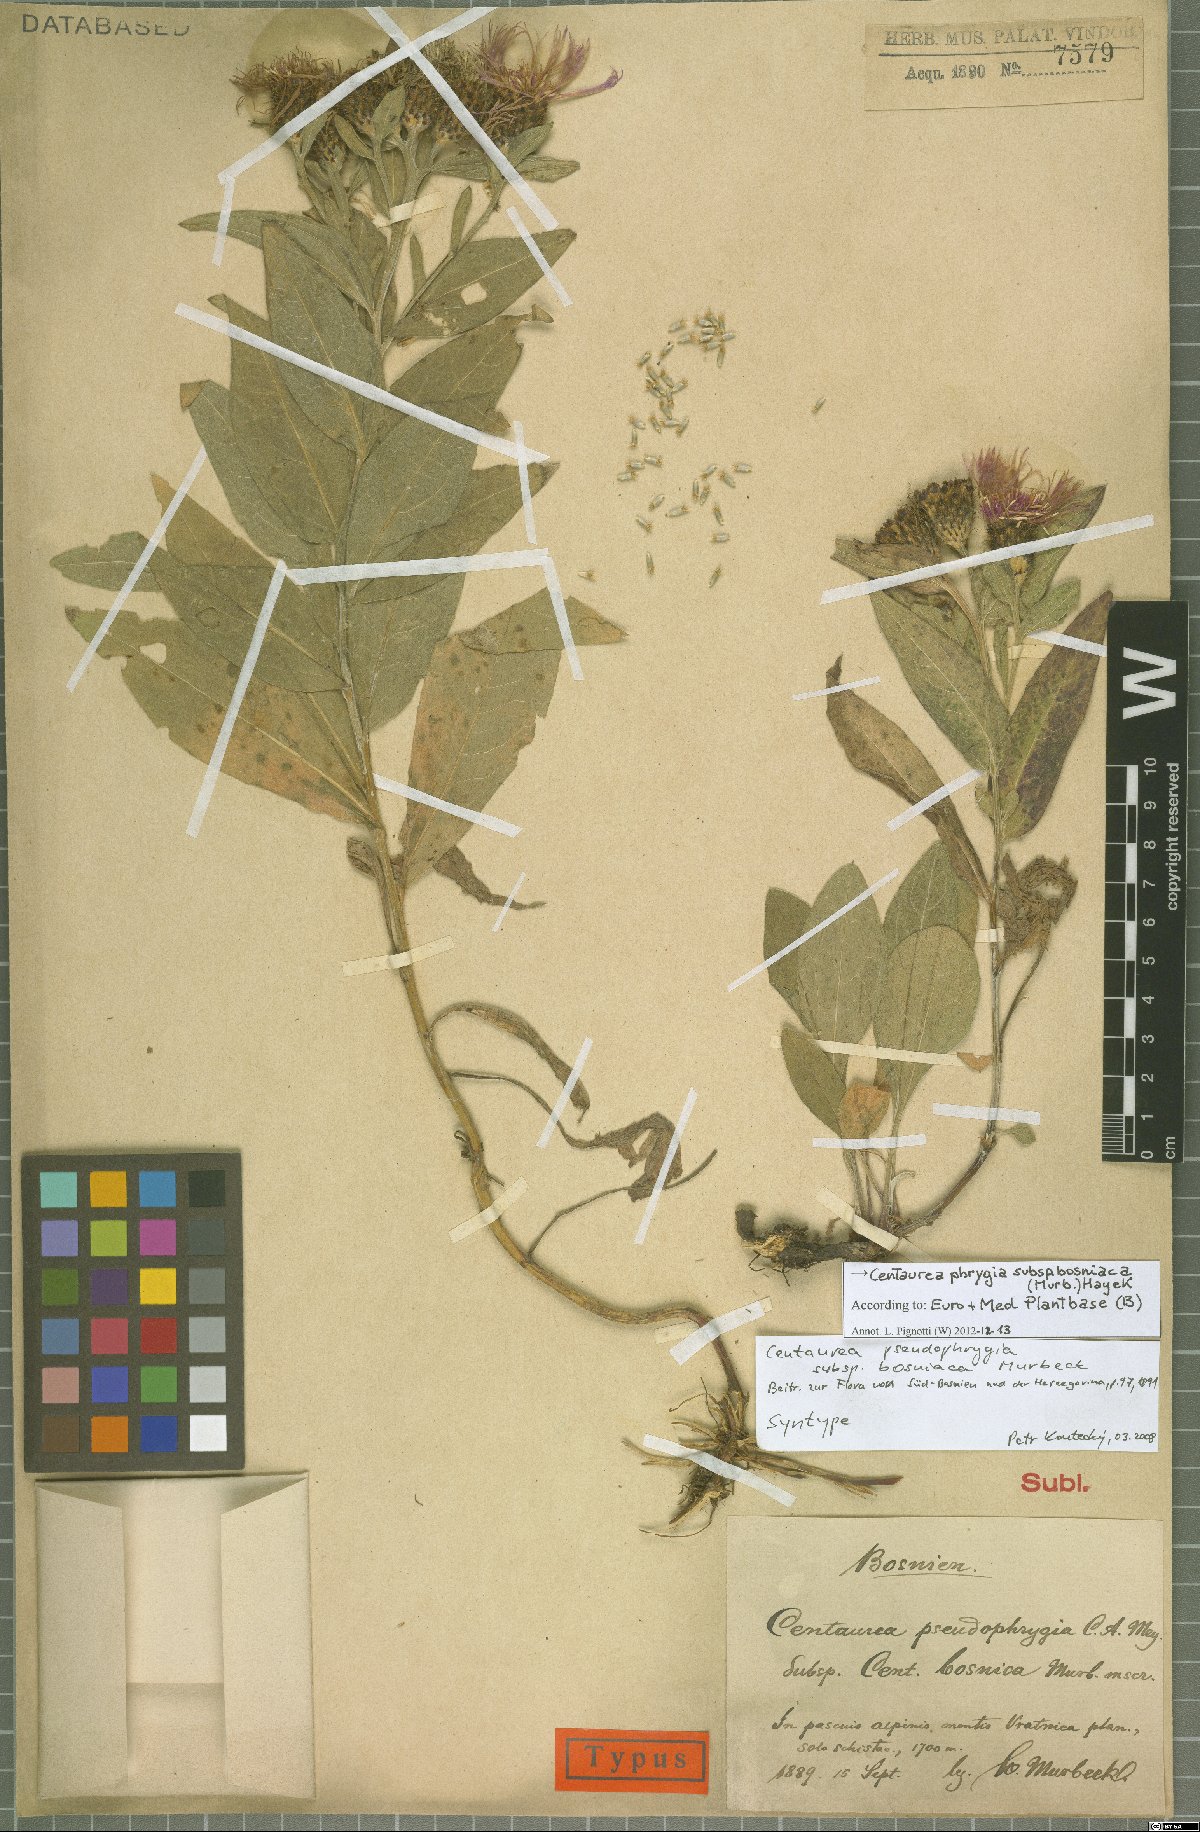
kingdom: Plantae
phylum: Tracheophyta
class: Magnoliopsida
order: Asterales
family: Asteraceae
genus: Centaurea
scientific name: Centaurea phrygia
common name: Wig knapweed
